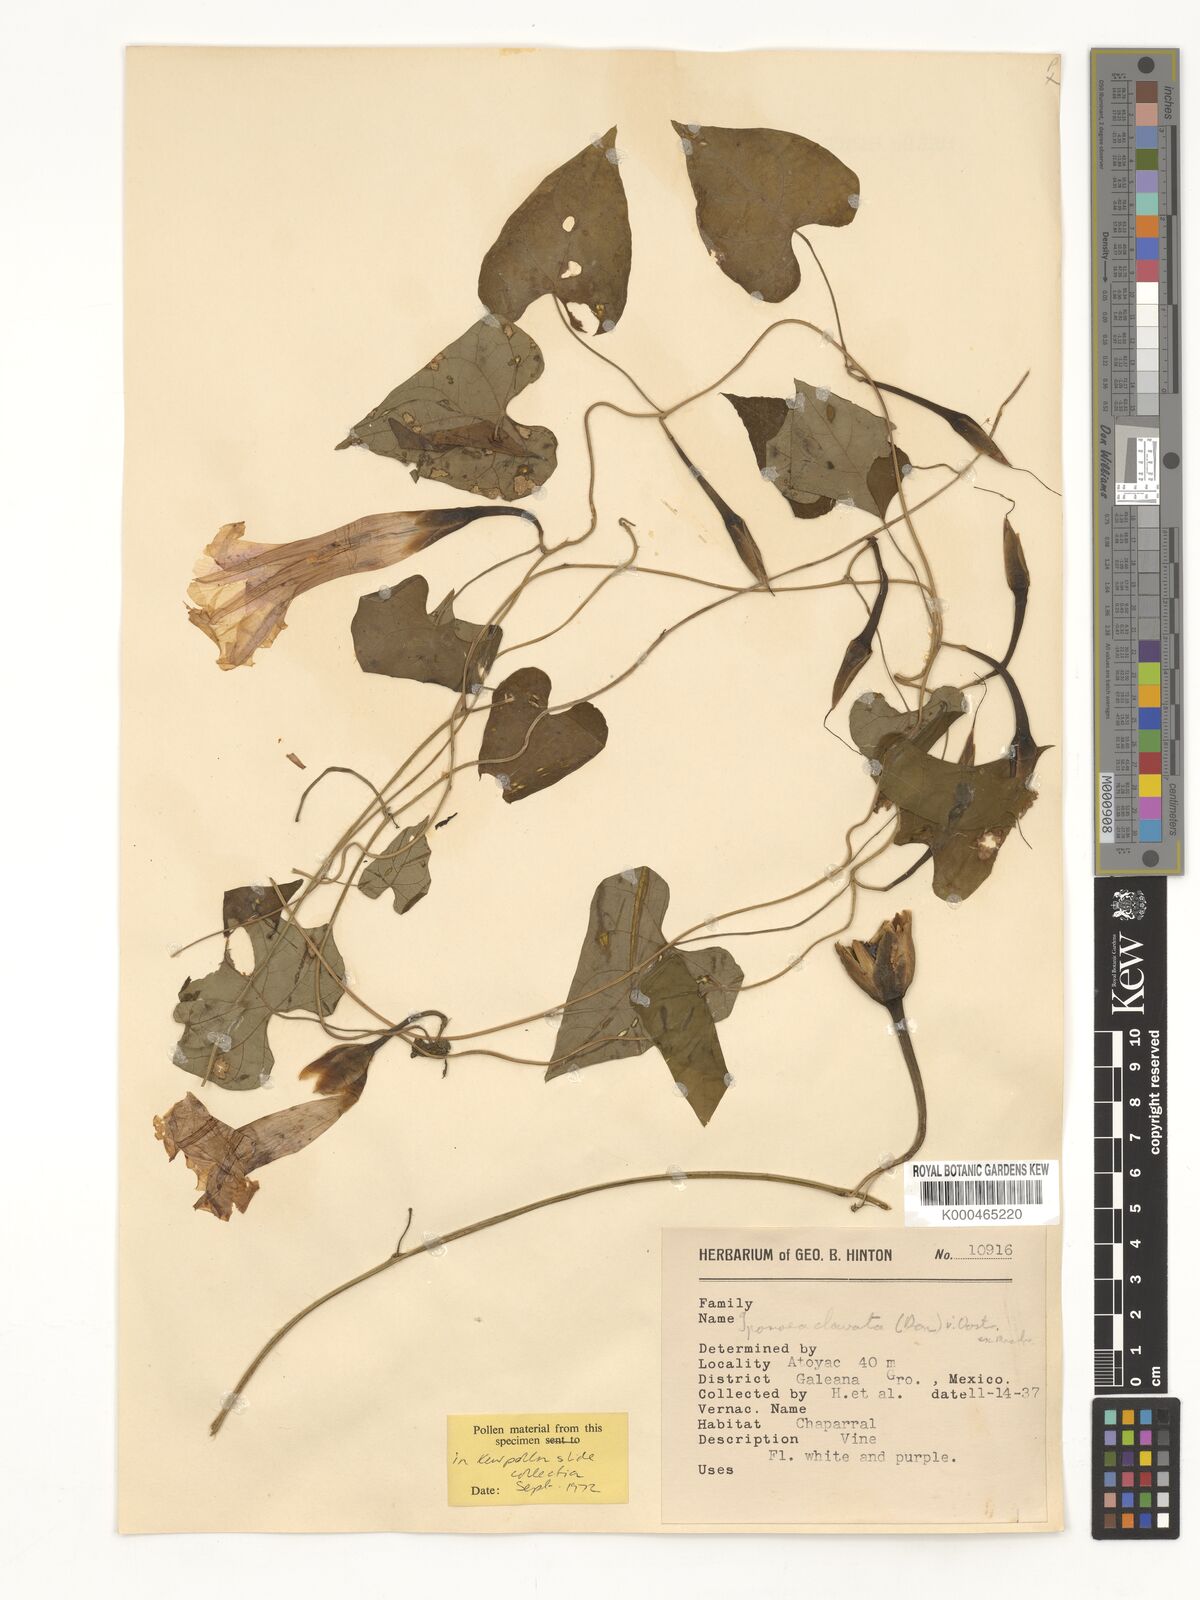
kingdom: Plantae
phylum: Tracheophyta
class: Magnoliopsida
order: Solanales
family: Convolvulaceae
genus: Ipomoea
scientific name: Ipomoea clavata
